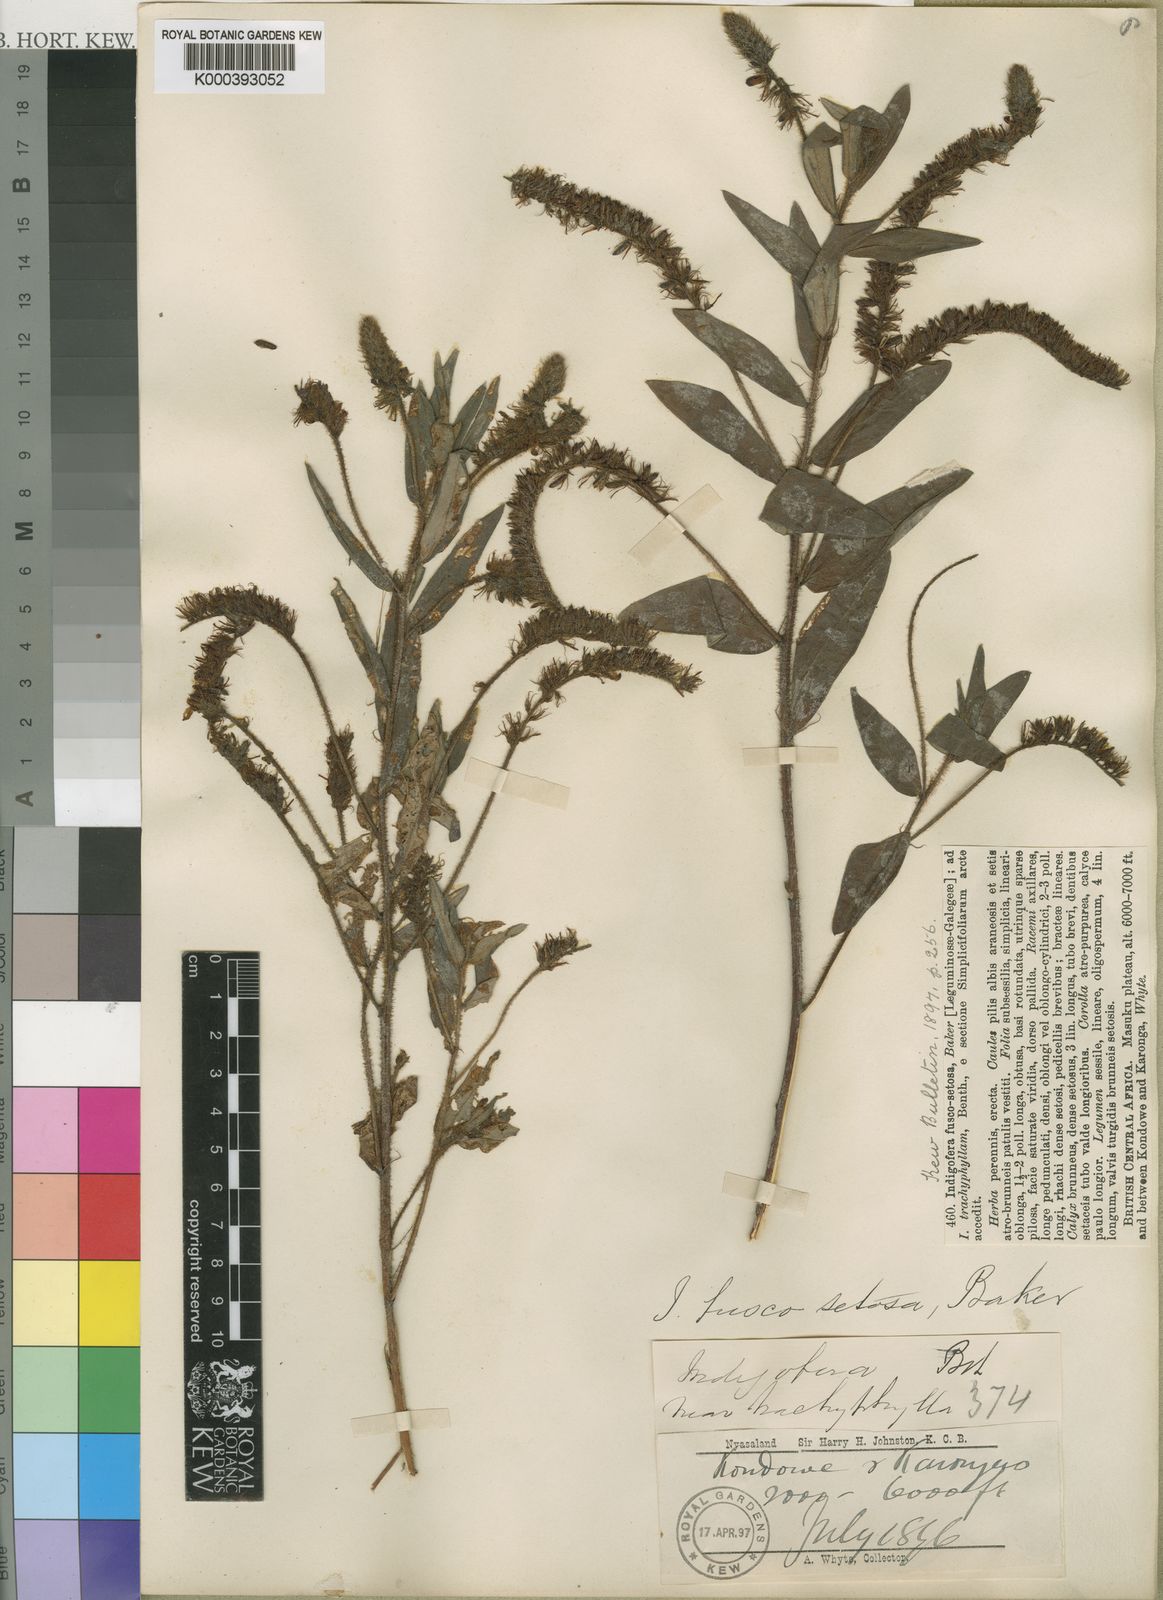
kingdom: Plantae
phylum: Tracheophyta
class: Magnoliopsida
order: Fabales
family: Fabaceae
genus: Indigofera
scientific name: Indigofera fuscosetosa
